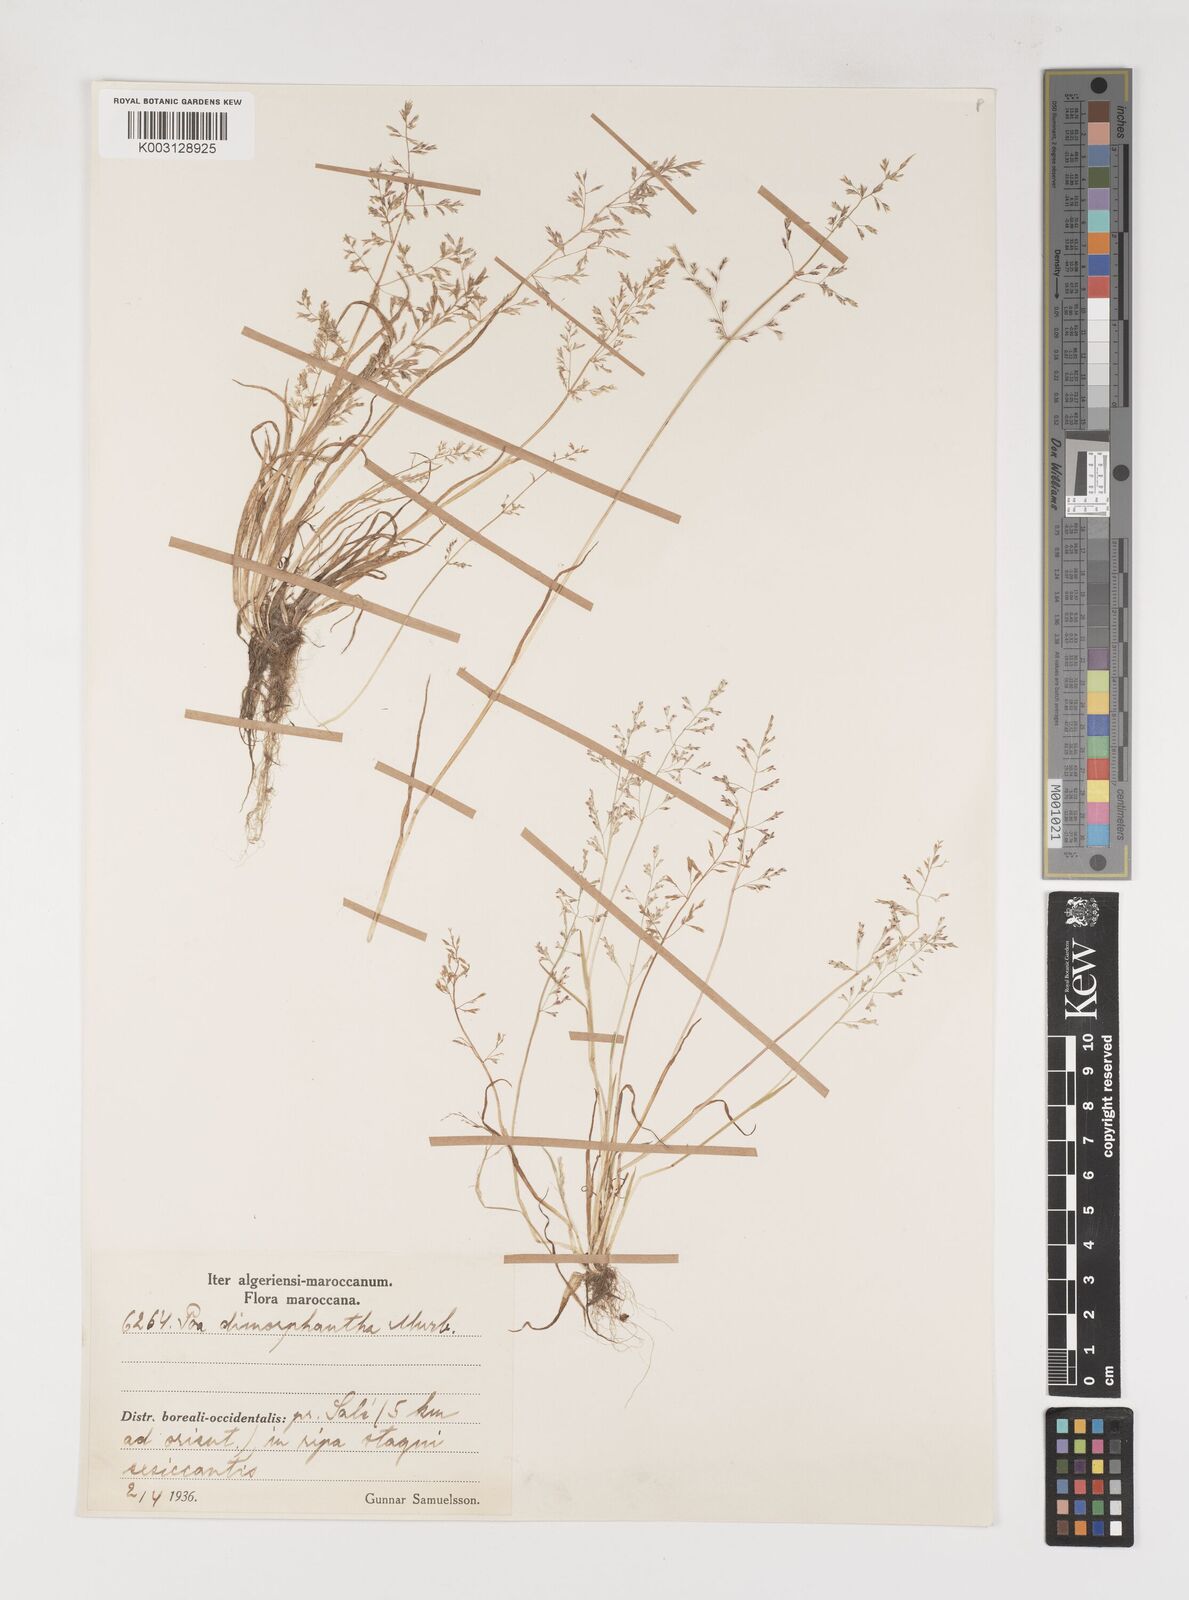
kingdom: Plantae
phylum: Tracheophyta
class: Liliopsida
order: Poales
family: Poaceae
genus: Poa
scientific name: Poa dimorphantha
